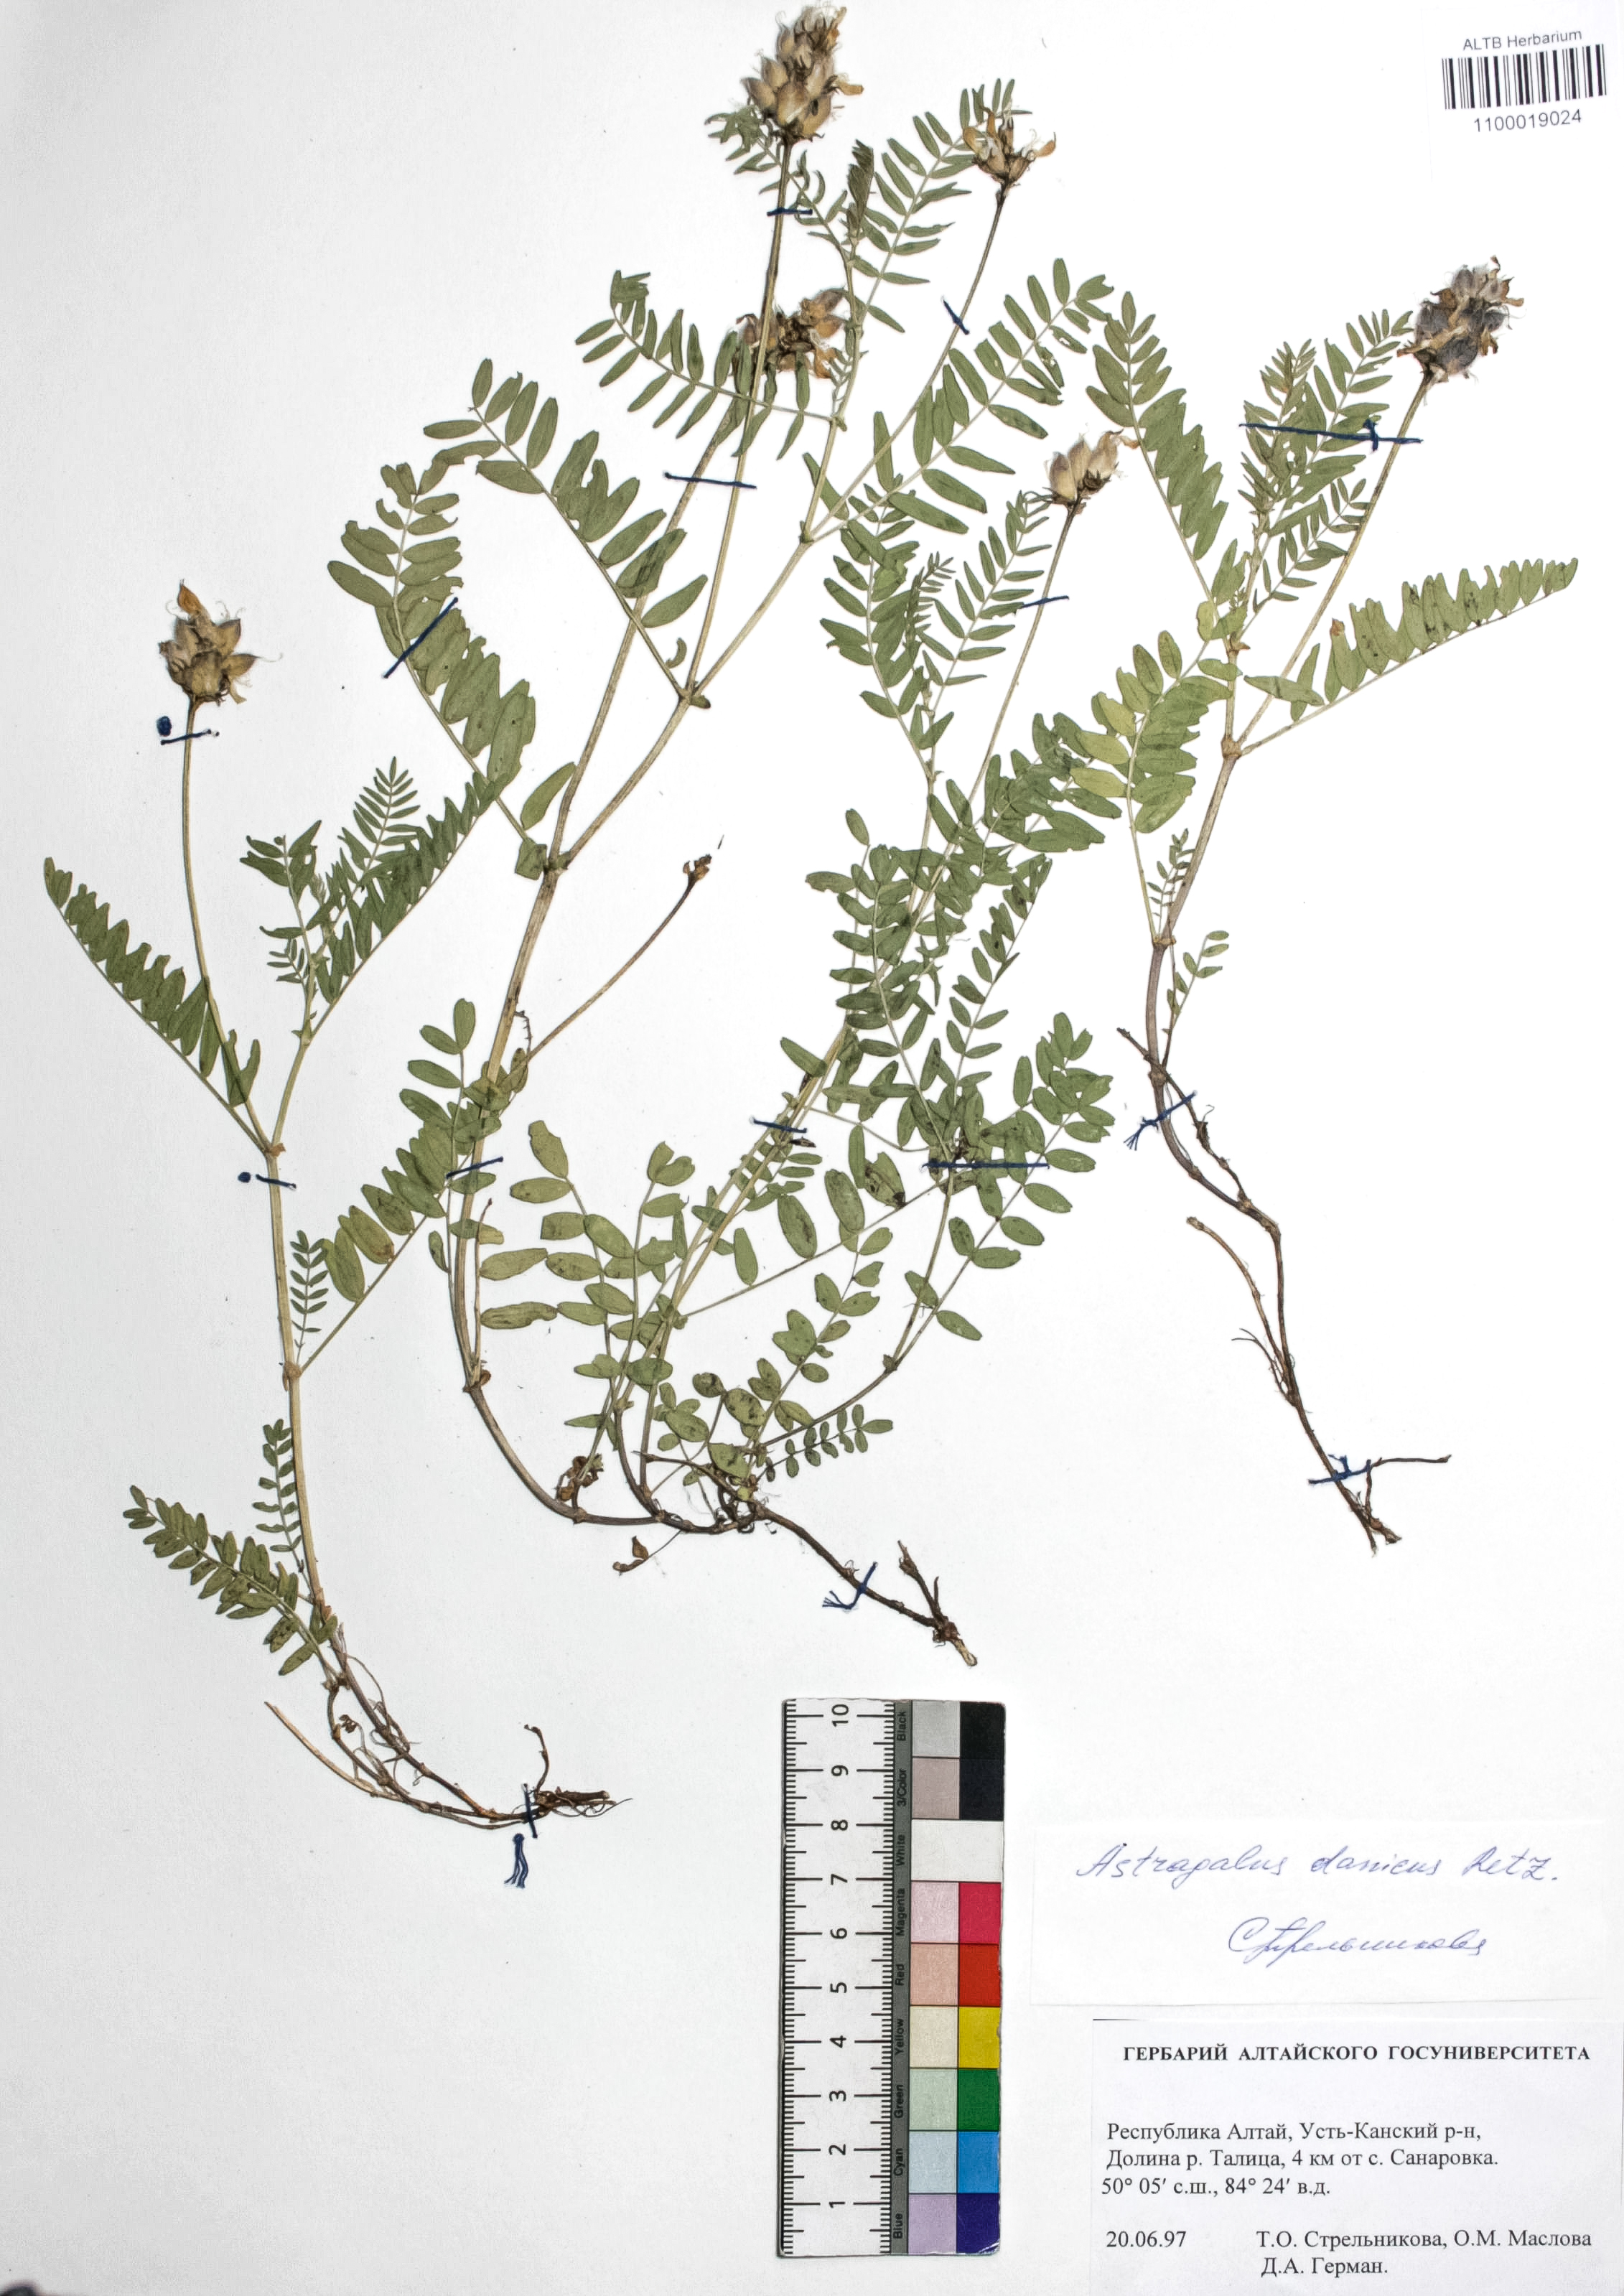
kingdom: Plantae
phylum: Tracheophyta
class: Magnoliopsida
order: Fabales
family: Fabaceae
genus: Astragalus
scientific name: Astragalus danicus
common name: Purple milk-vetch
